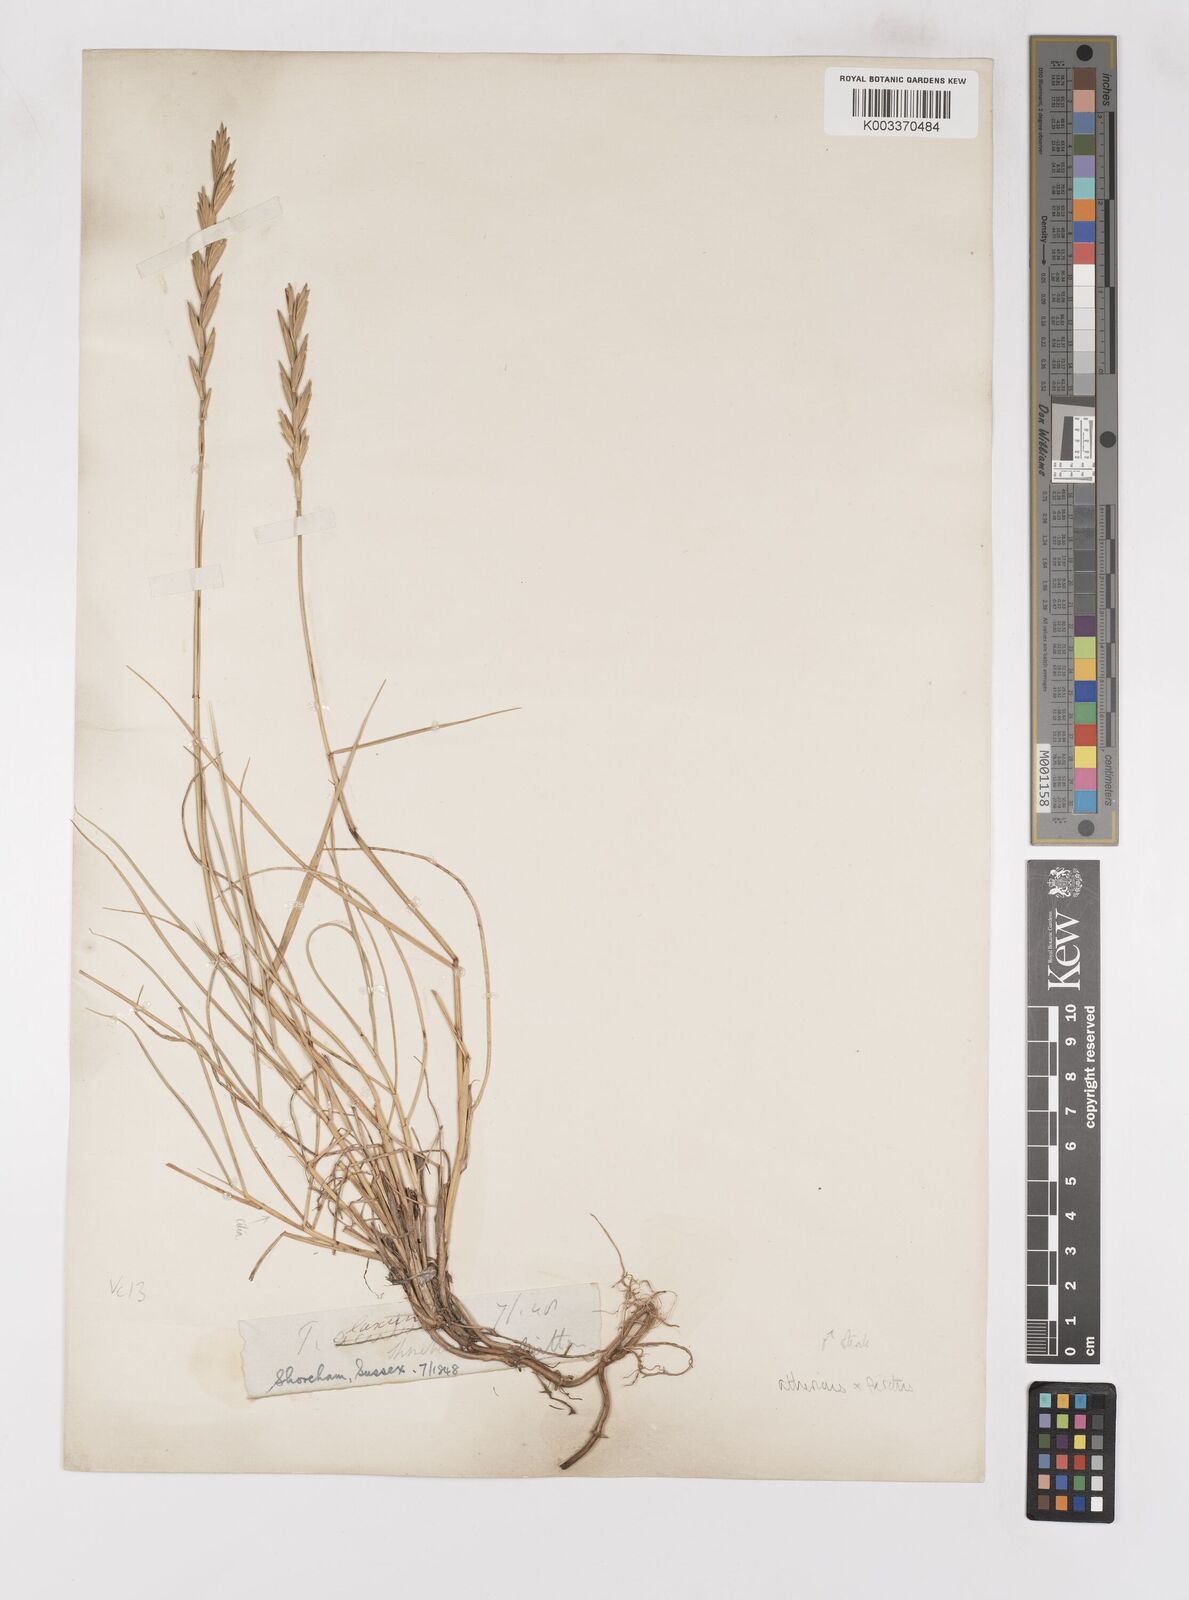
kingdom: Plantae
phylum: Tracheophyta
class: Liliopsida
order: Poales
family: Poaceae
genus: Thinoelymus
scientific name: Thinoelymus obtusiusculus
